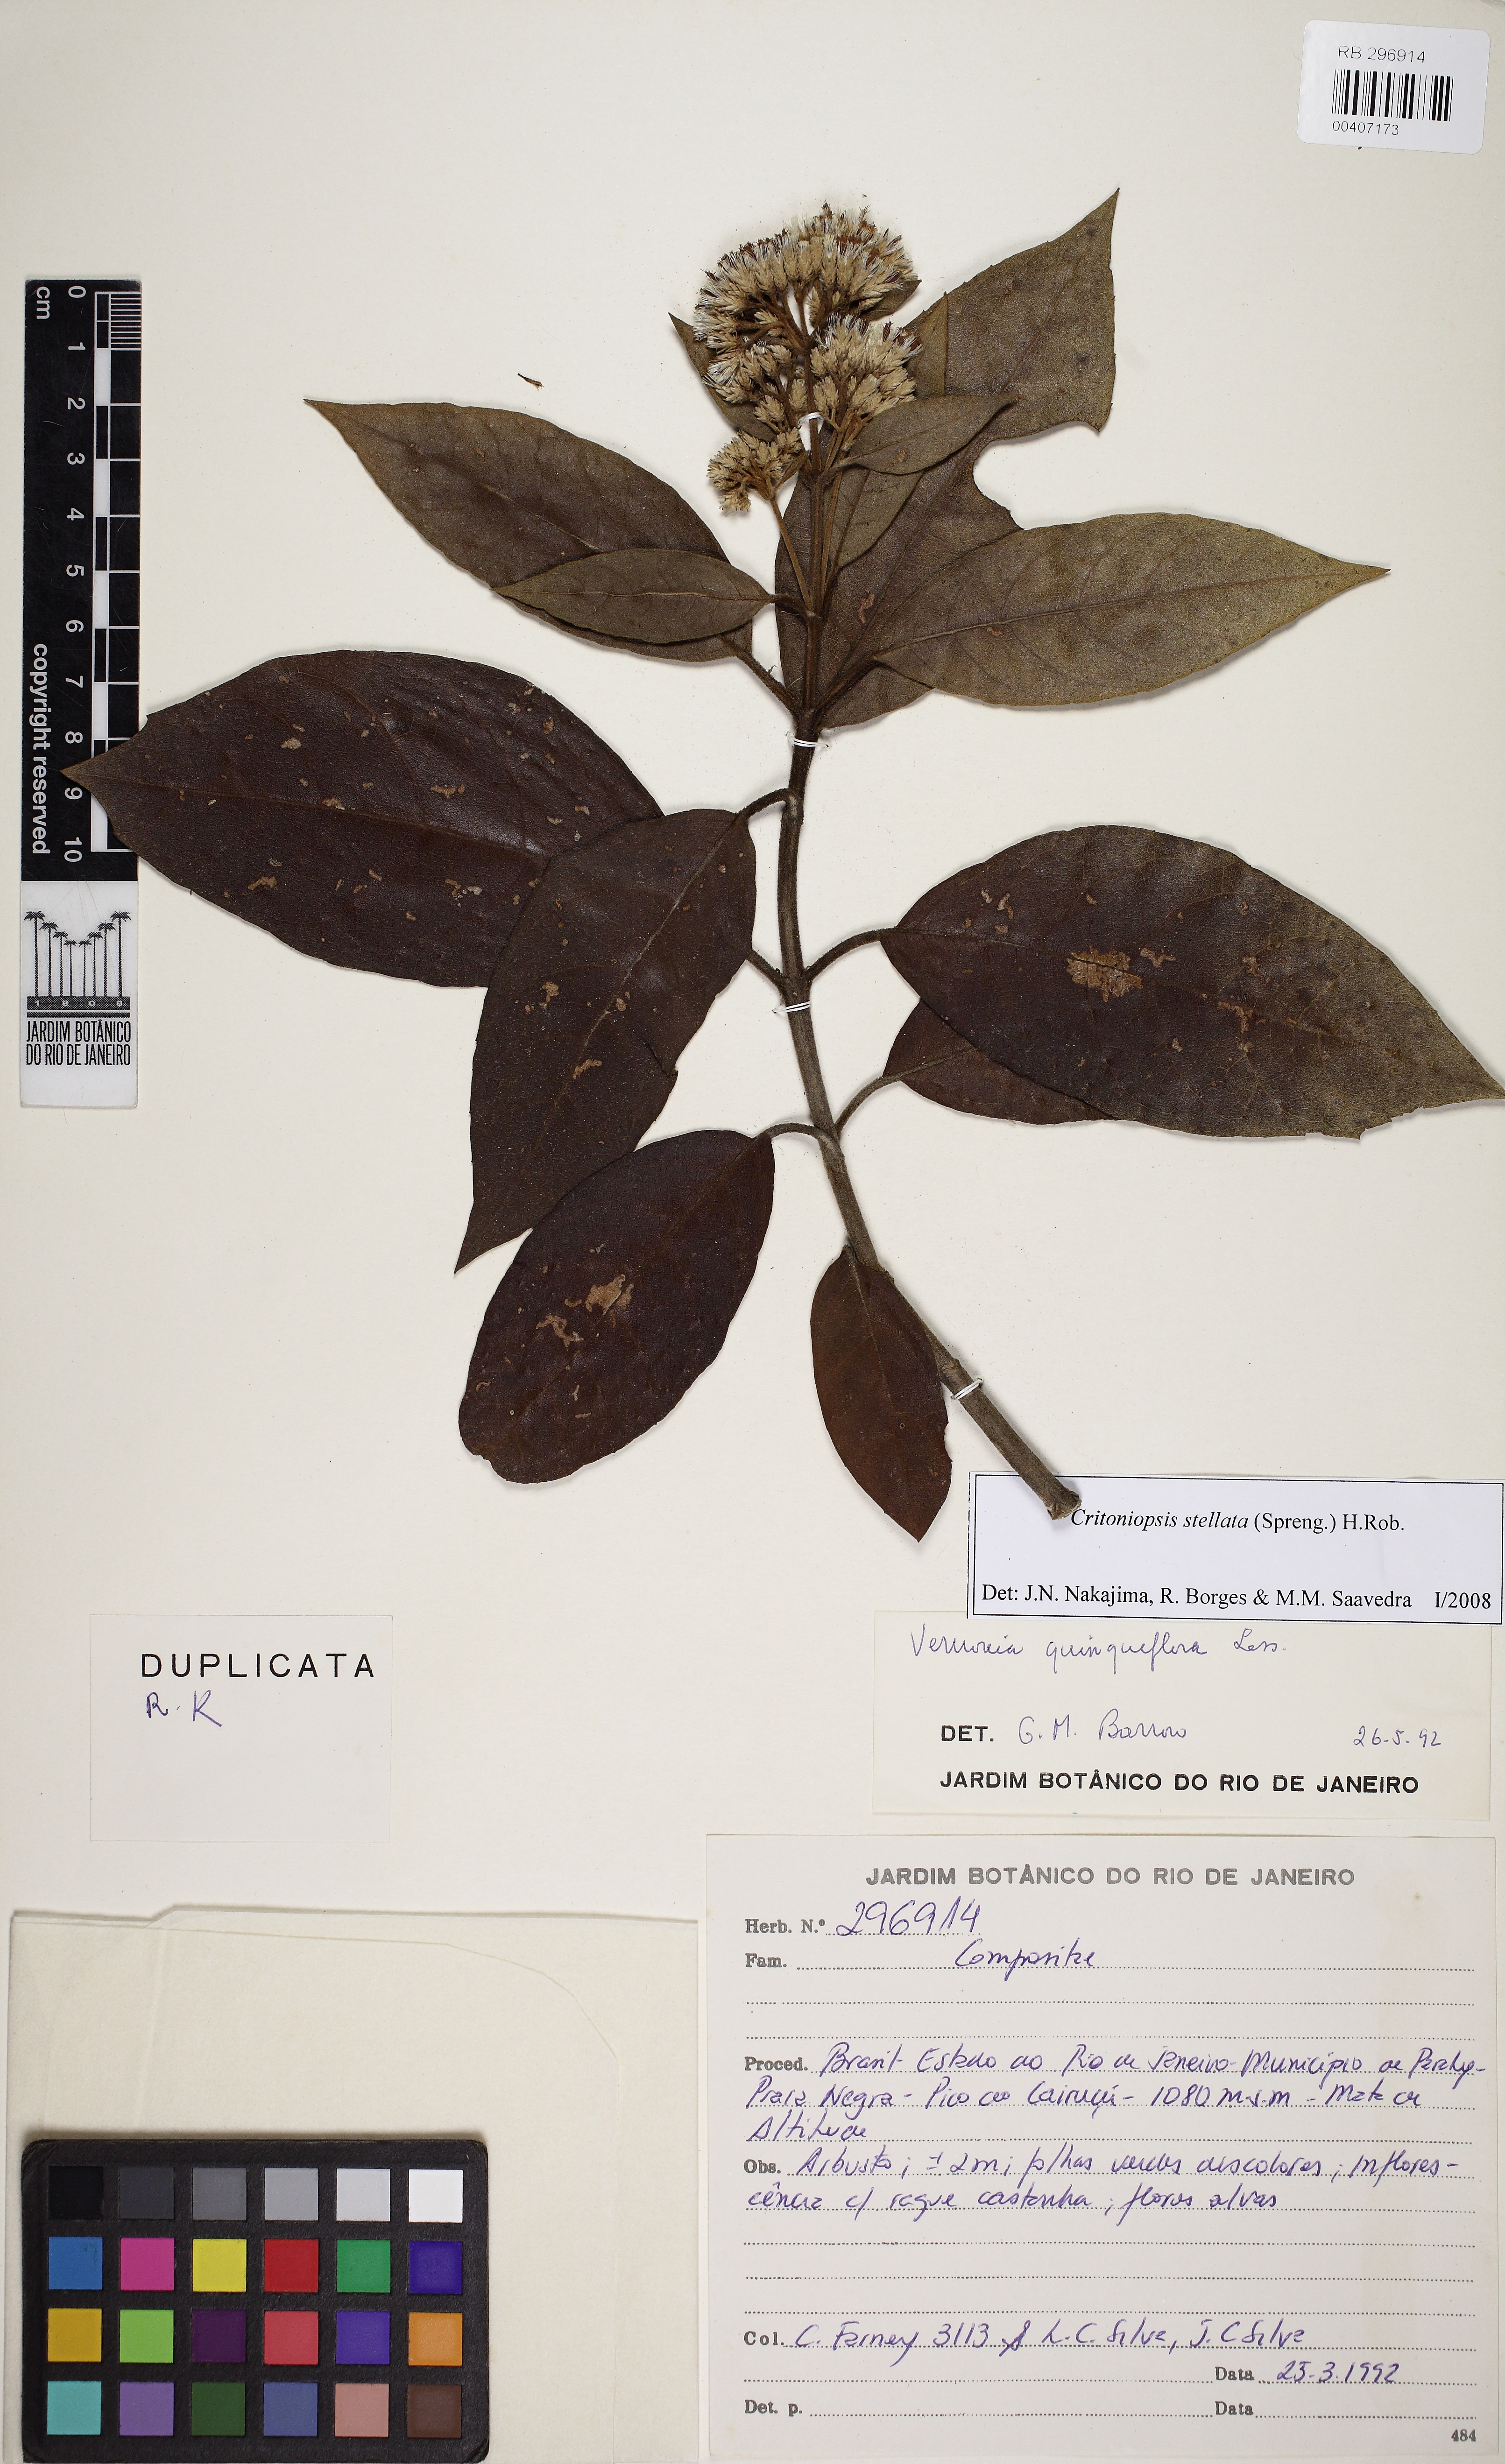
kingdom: Plantae
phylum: Tracheophyta
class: Magnoliopsida
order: Asterales
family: Asteraceae
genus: Critoniopsis
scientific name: Critoniopsis quinqueflora
